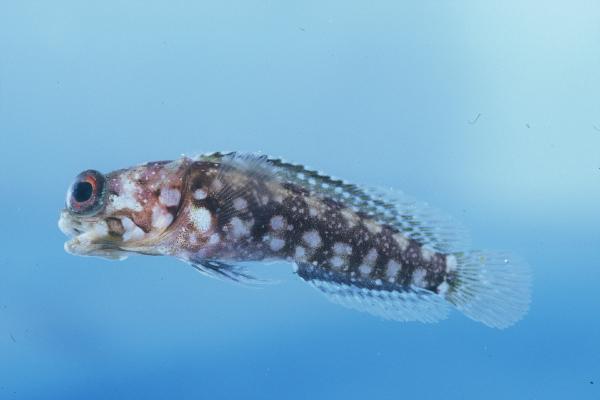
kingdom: Animalia
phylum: Chordata
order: Perciformes
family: Opistognathidae
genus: Opistognathus
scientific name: Opistognathus afer
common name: African jawfish
